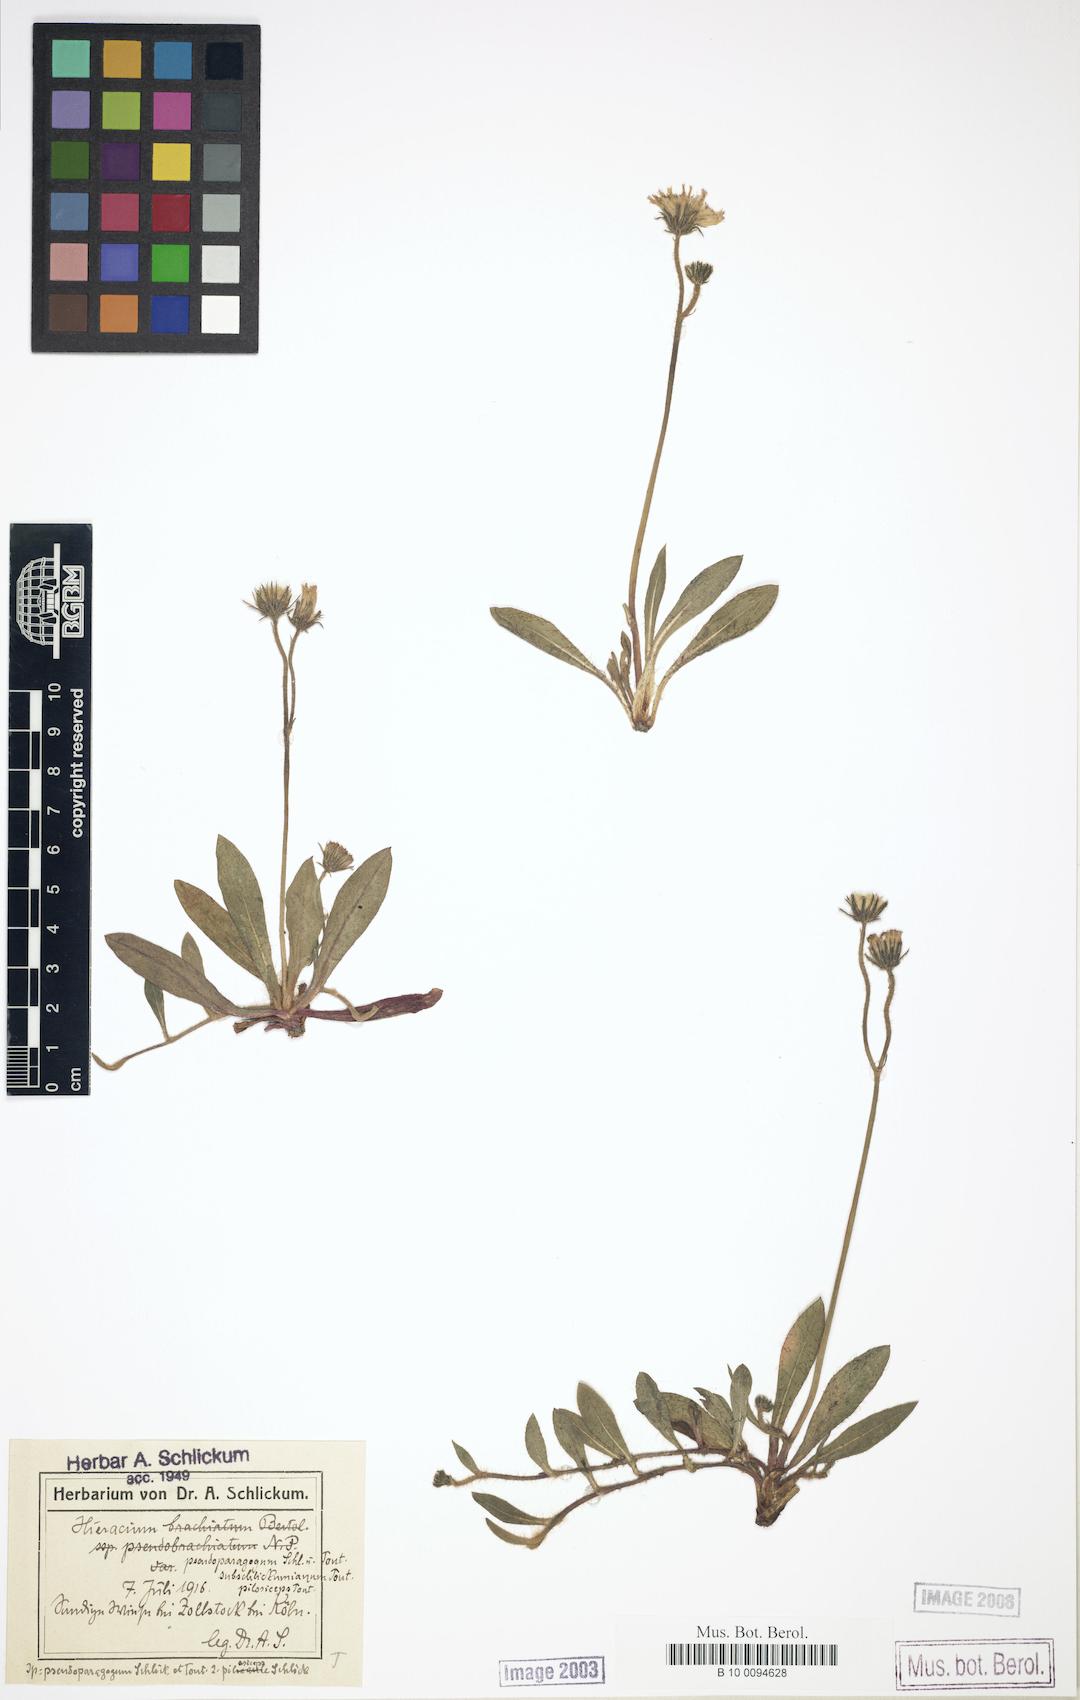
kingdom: Plantae
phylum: Tracheophyta
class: Magnoliopsida
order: Asterales
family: Asteraceae
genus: Pilosella
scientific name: Pilosella pseudoparagoga
